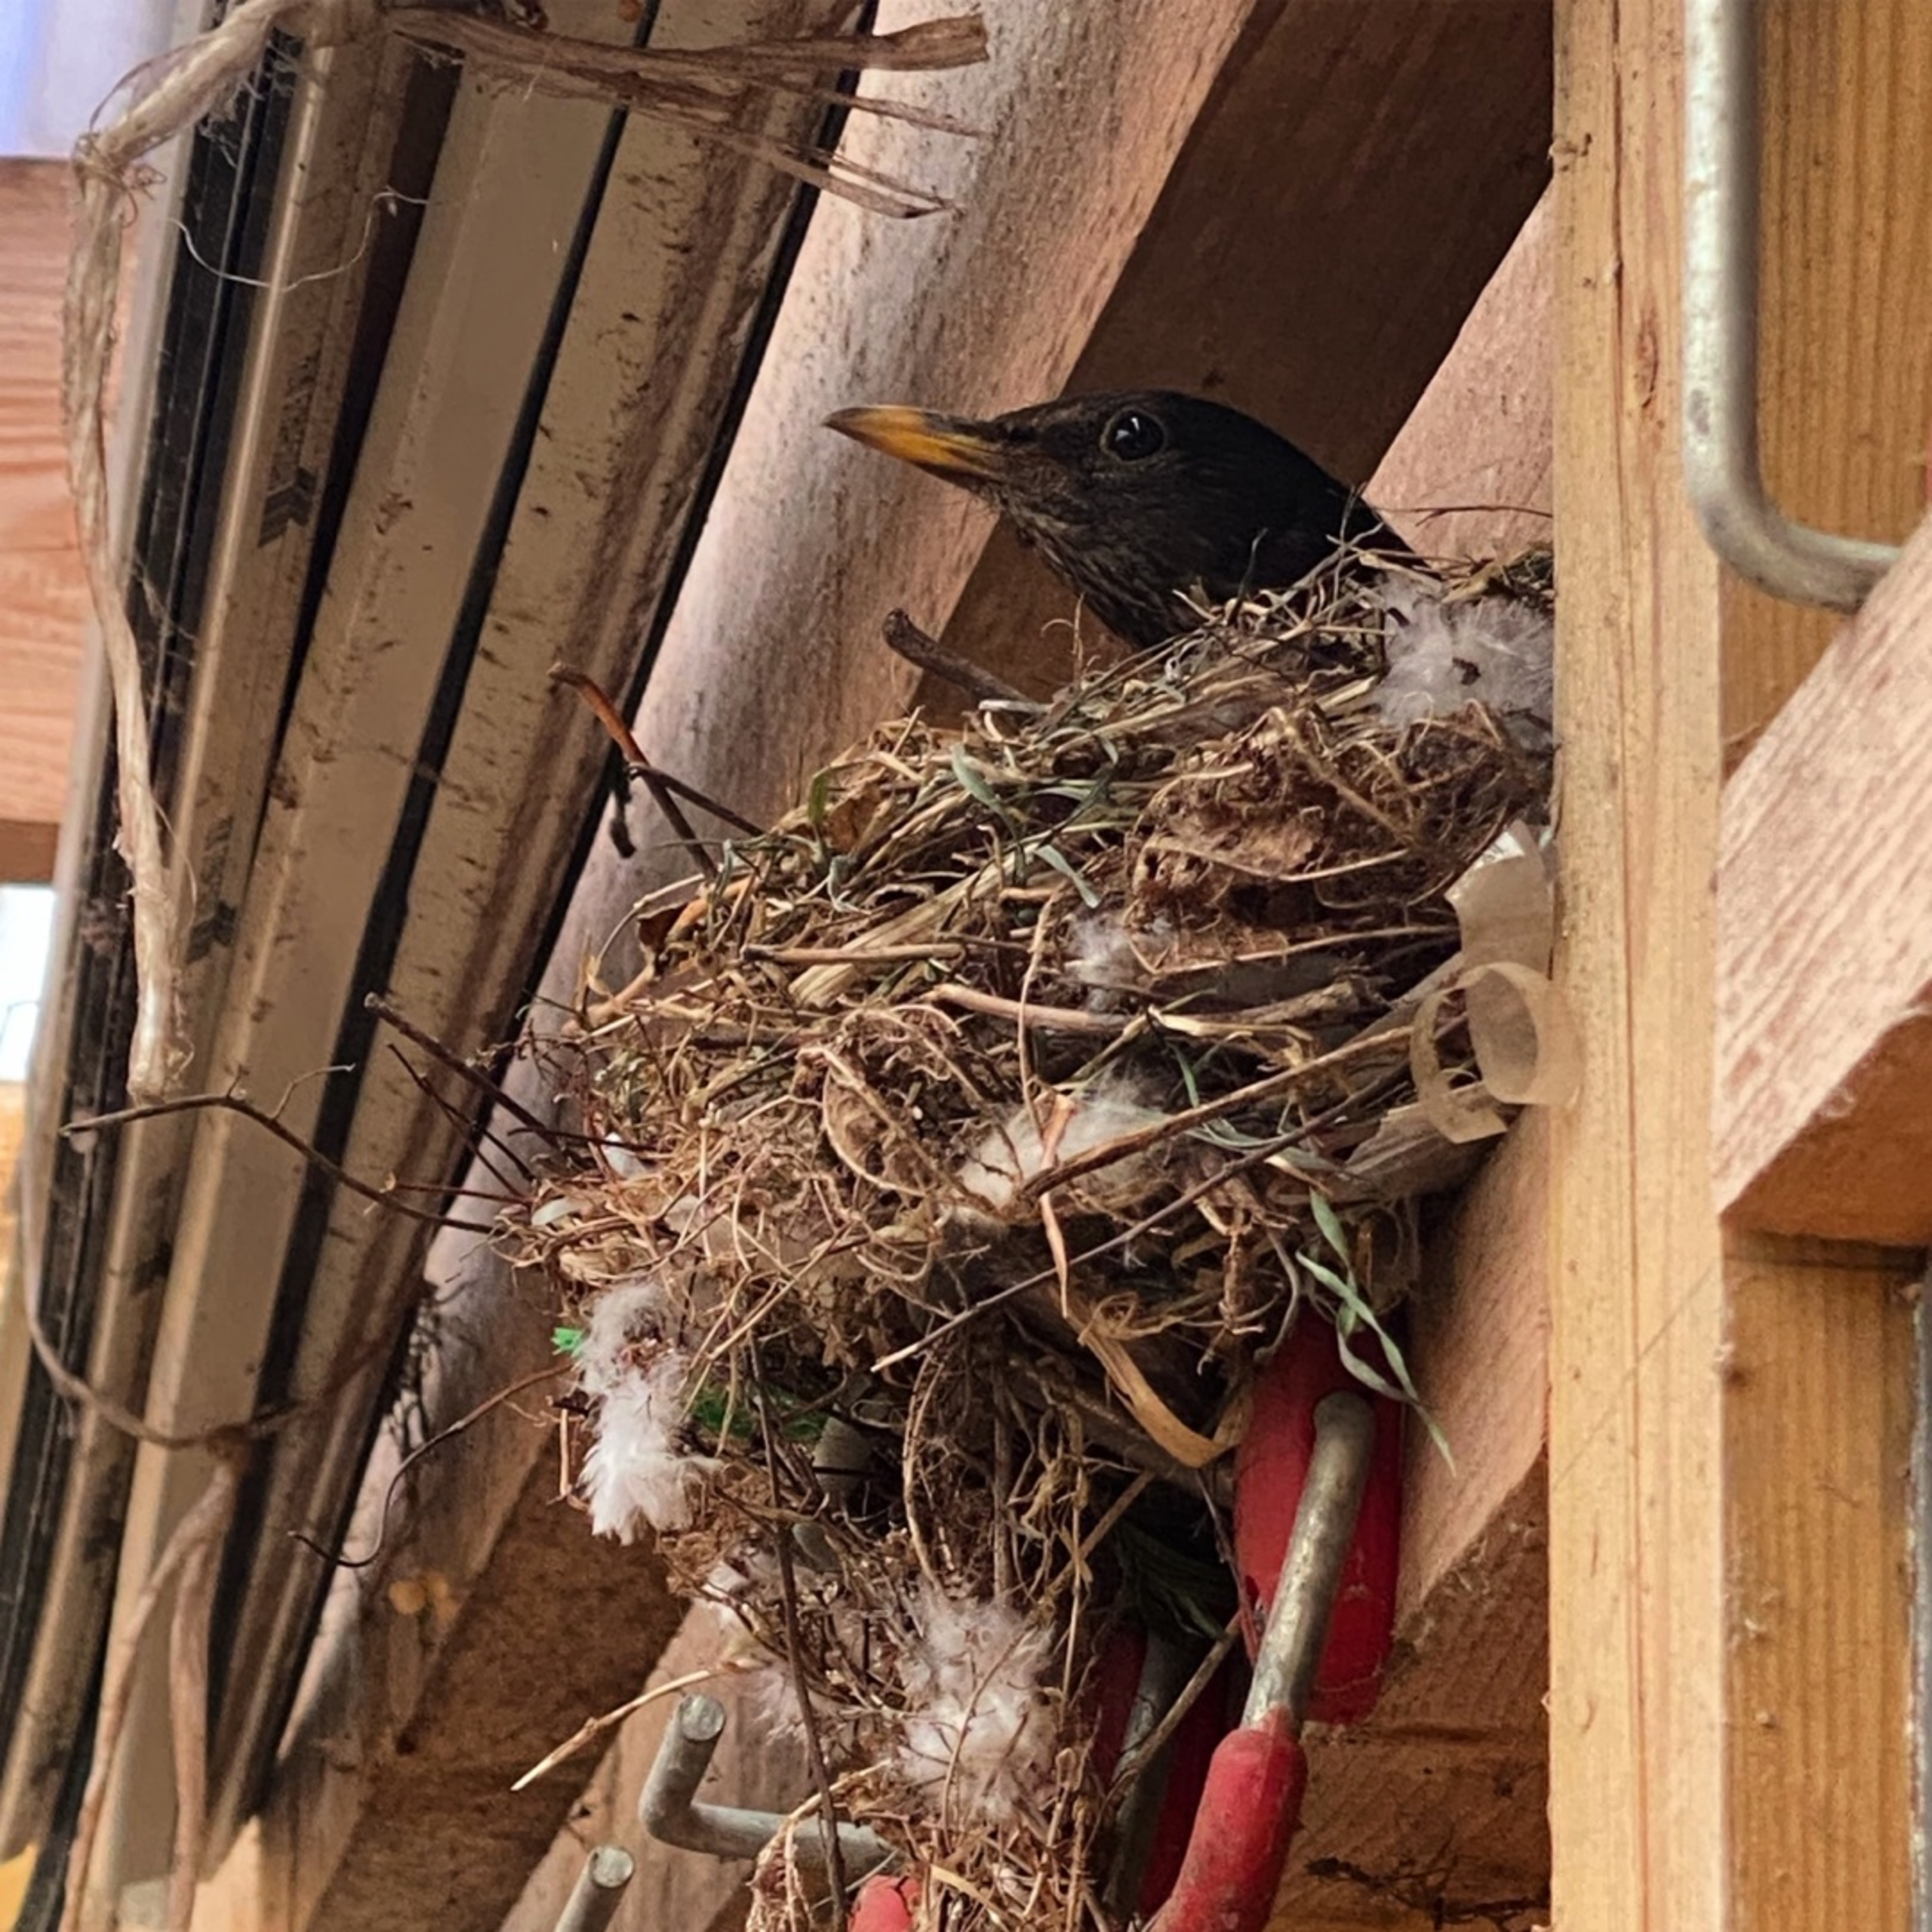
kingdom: Animalia
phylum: Chordata
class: Aves
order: Passeriformes
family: Turdidae
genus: Turdus
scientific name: Turdus merula
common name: Solsort
